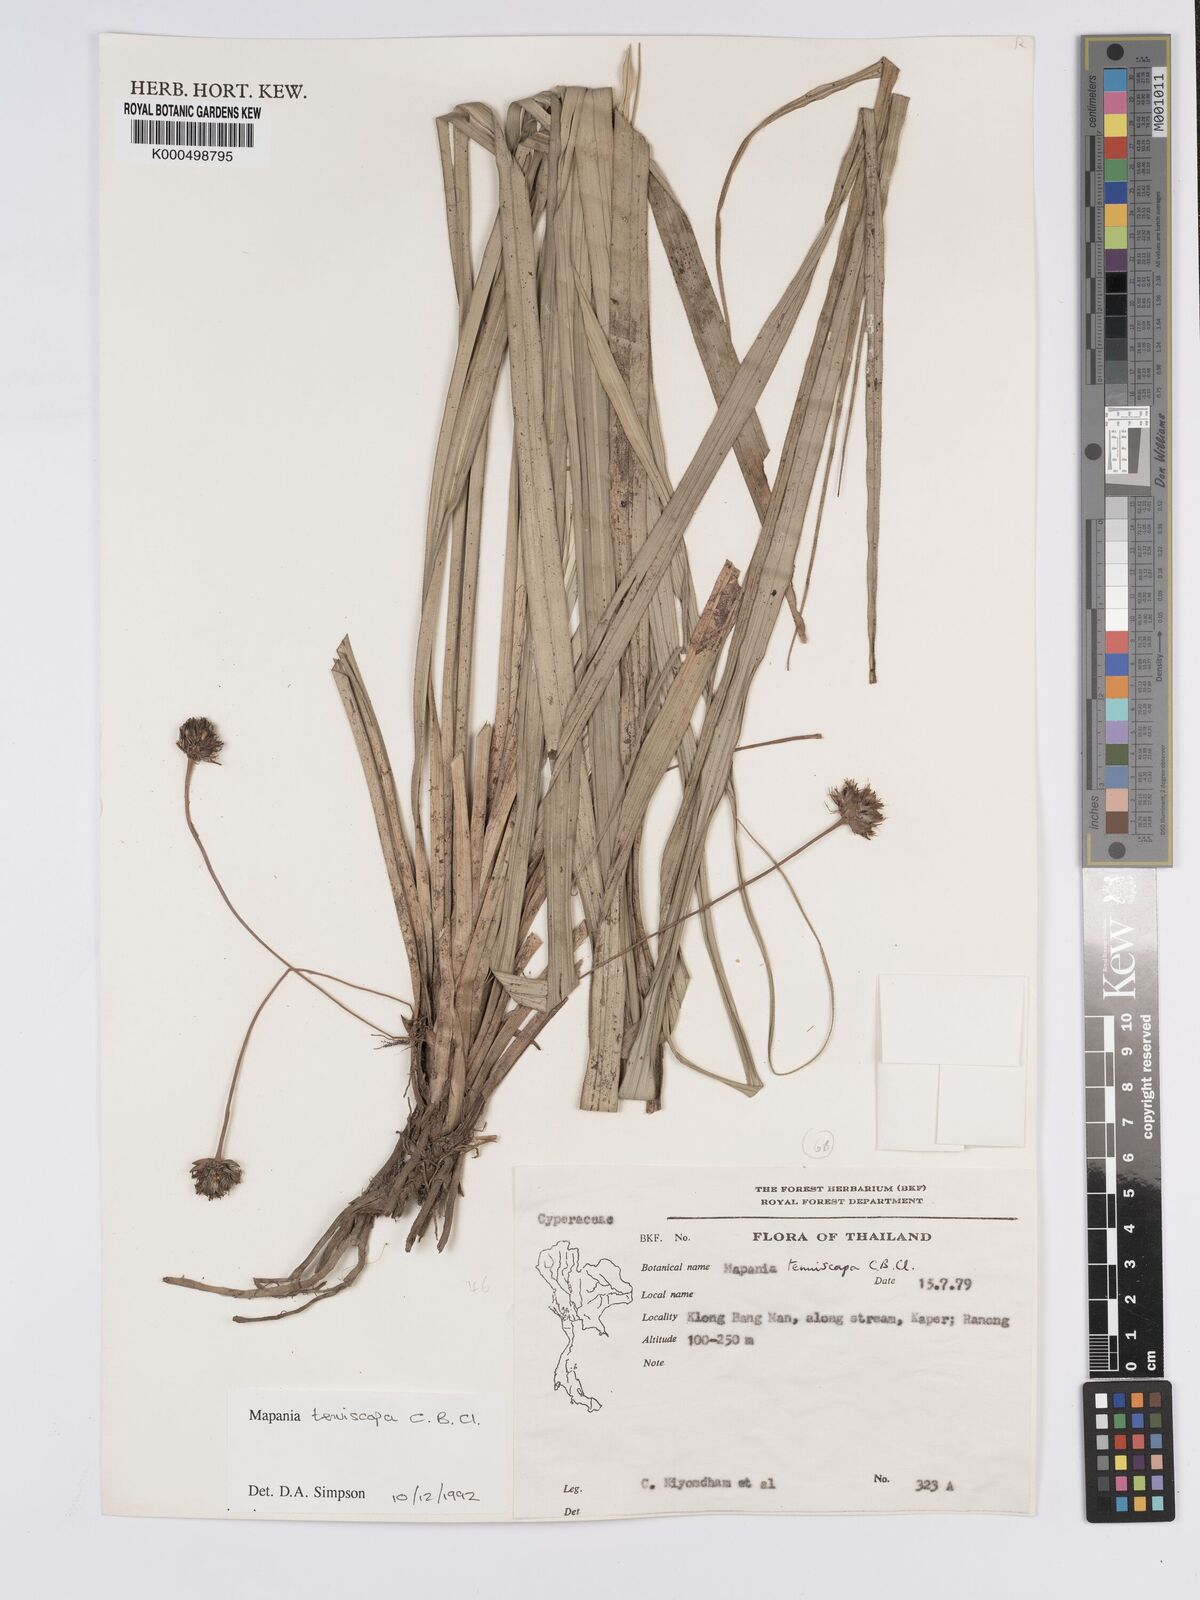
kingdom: Plantae
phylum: Tracheophyta
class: Liliopsida
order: Poales
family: Cyperaceae
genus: Mapania
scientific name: Mapania tenuiscapa
